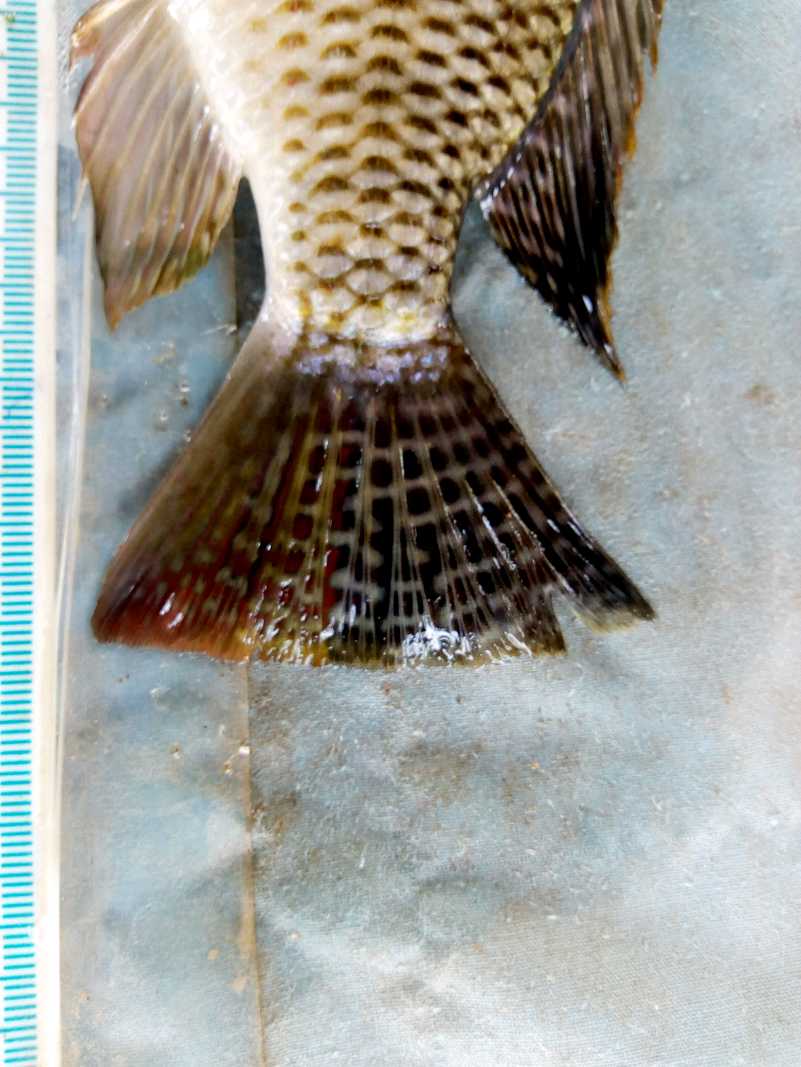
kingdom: Animalia
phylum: Chordata
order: Perciformes
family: Cichlidae
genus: Coptodon
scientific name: Coptodon rendalli
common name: Redbreast tilapia
